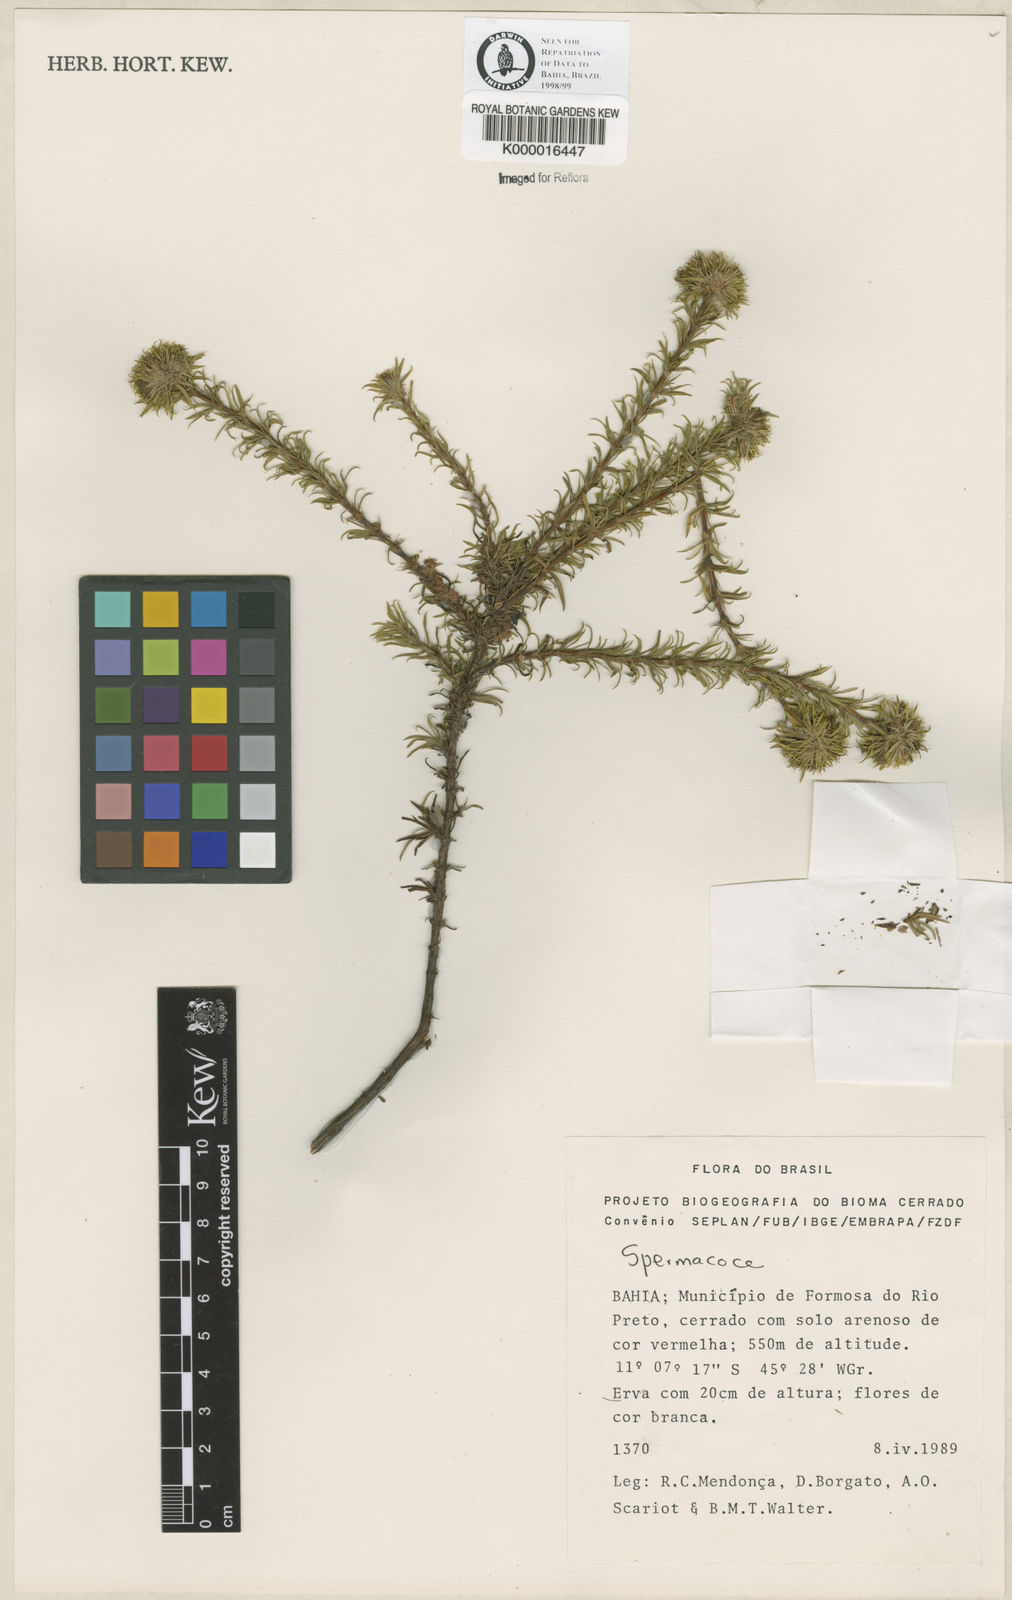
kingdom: Plantae
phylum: Tracheophyta
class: Magnoliopsida
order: Gentianales
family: Rubiaceae
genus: Spermacoce
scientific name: Spermacoce
